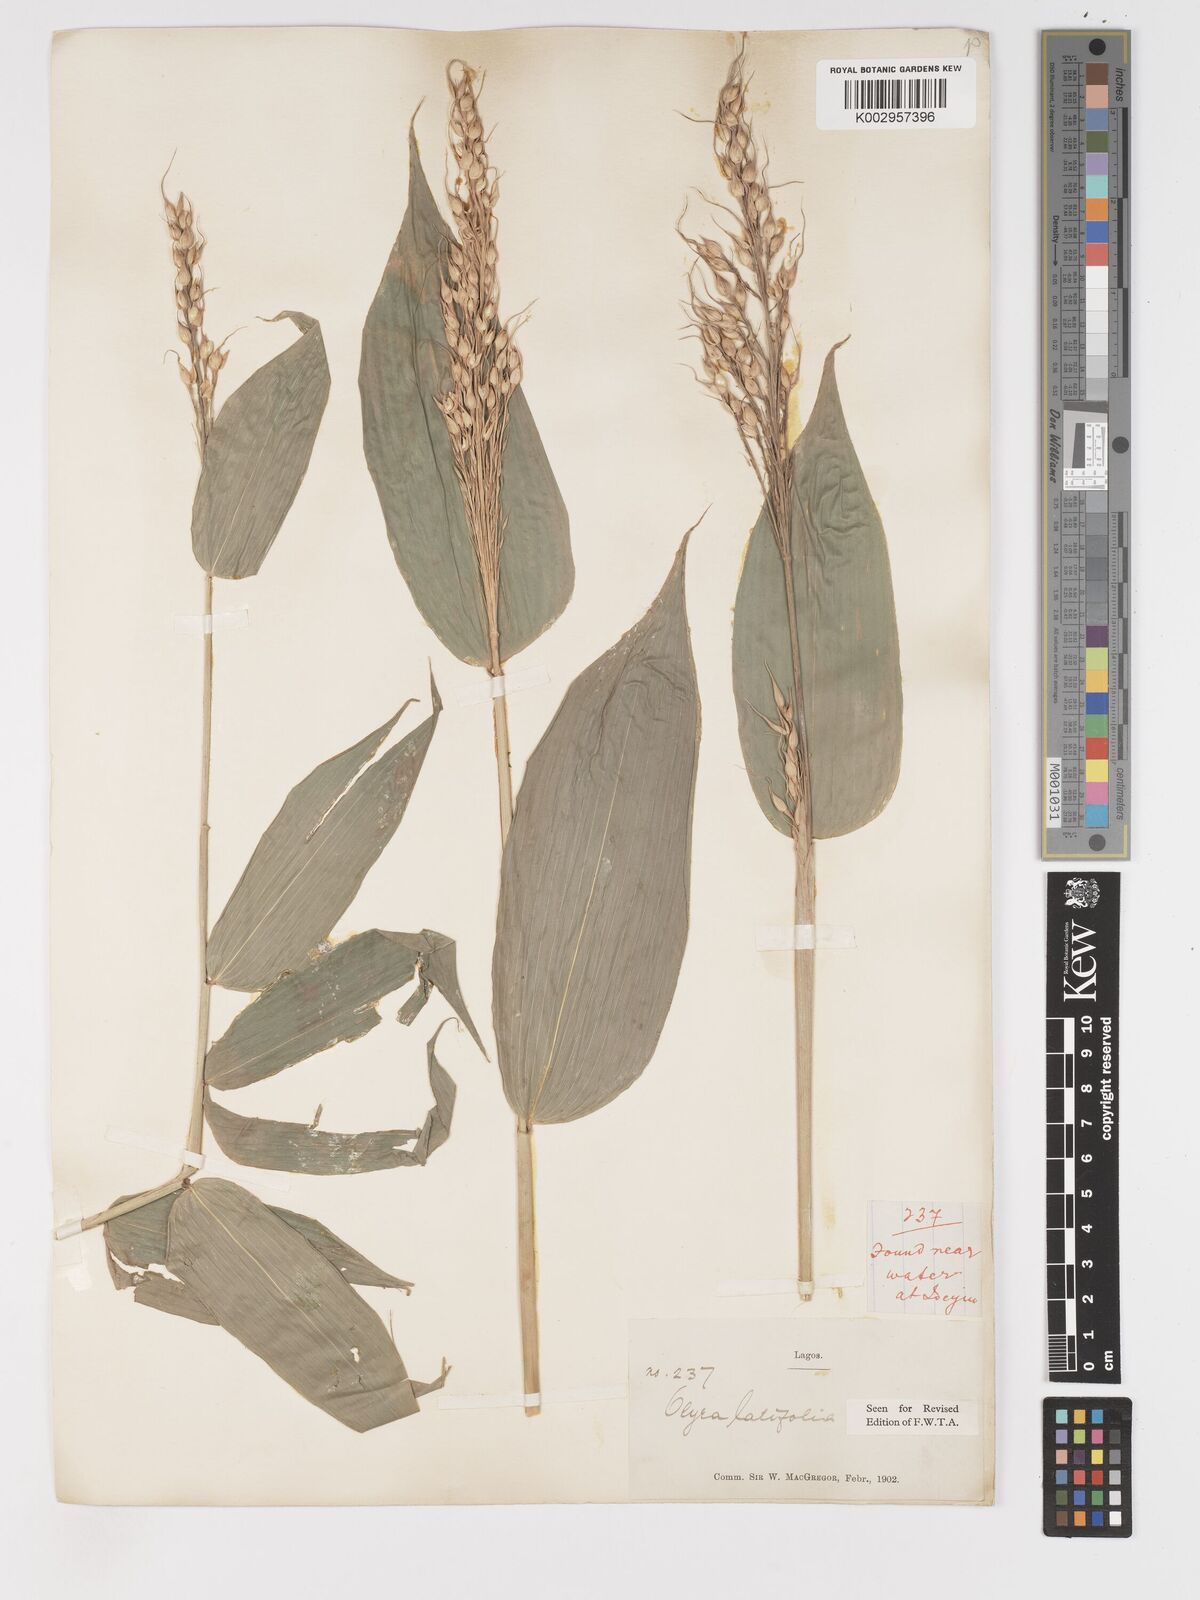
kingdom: Plantae
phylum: Tracheophyta
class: Liliopsida
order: Poales
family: Poaceae
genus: Olyra
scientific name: Olyra latifolia
